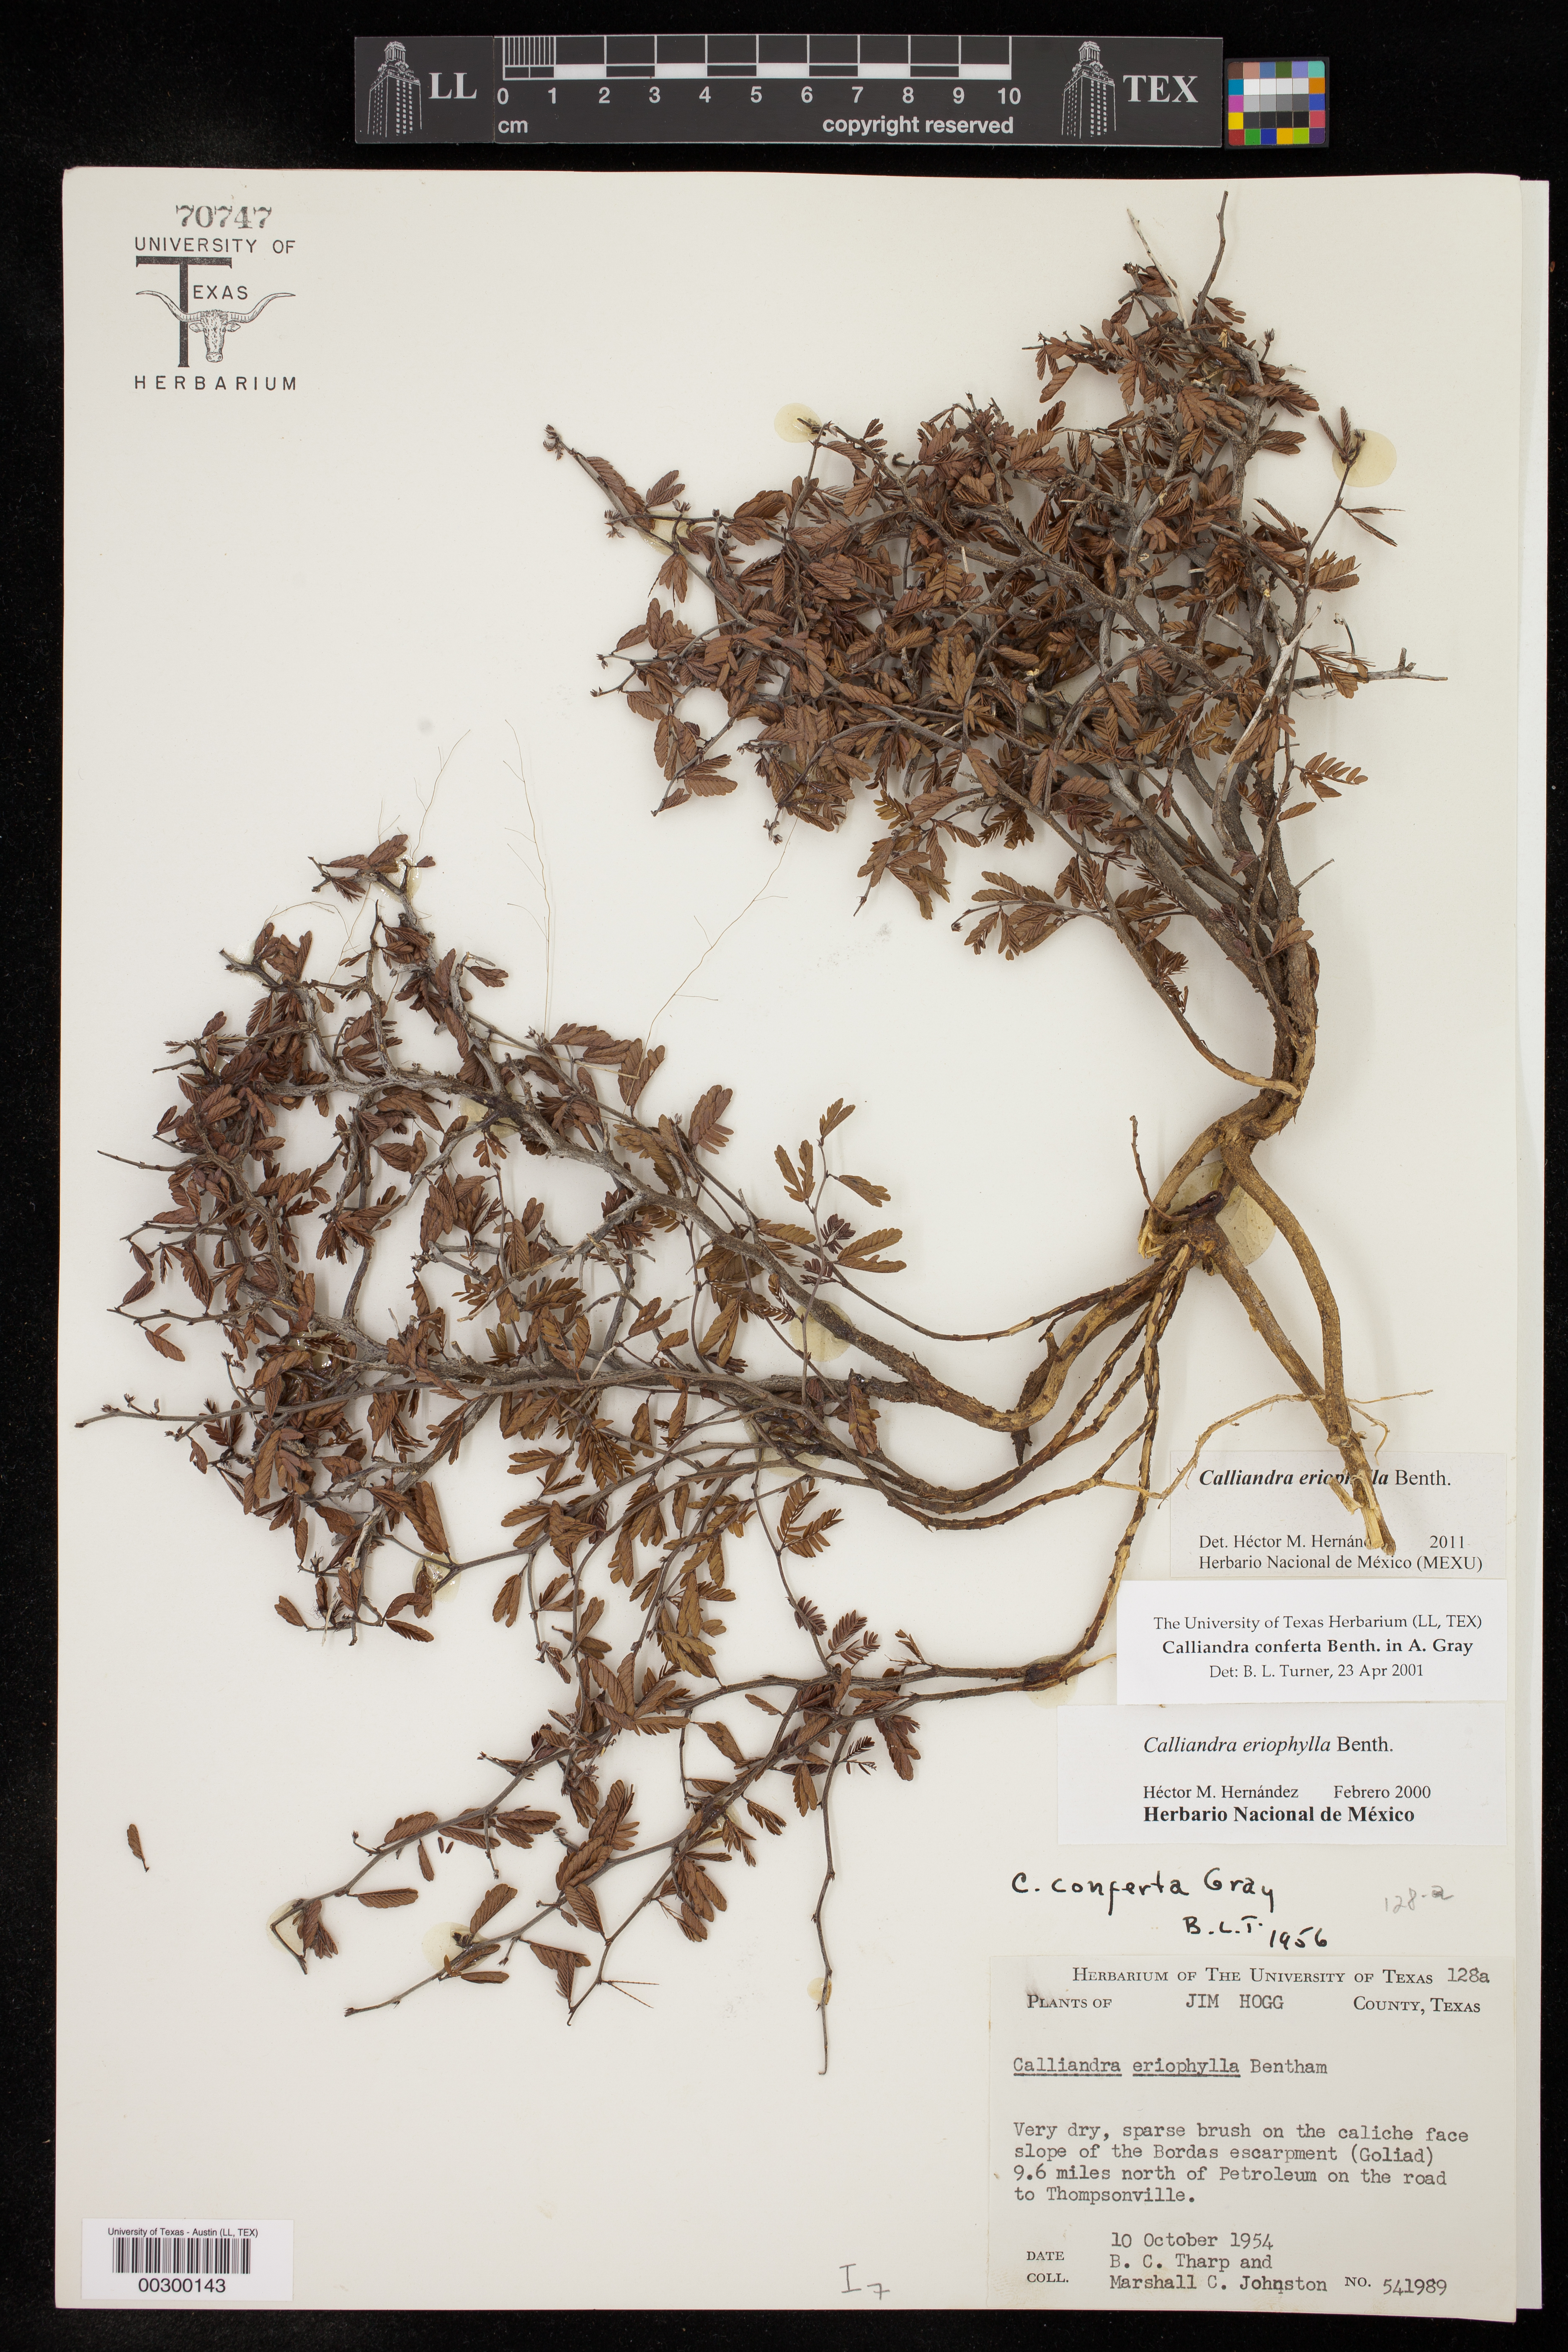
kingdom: Plantae
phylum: Tracheophyta
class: Magnoliopsida
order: Fabales
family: Fabaceae
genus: Calliandra
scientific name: Calliandra eriophylla
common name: Fairy-duster
